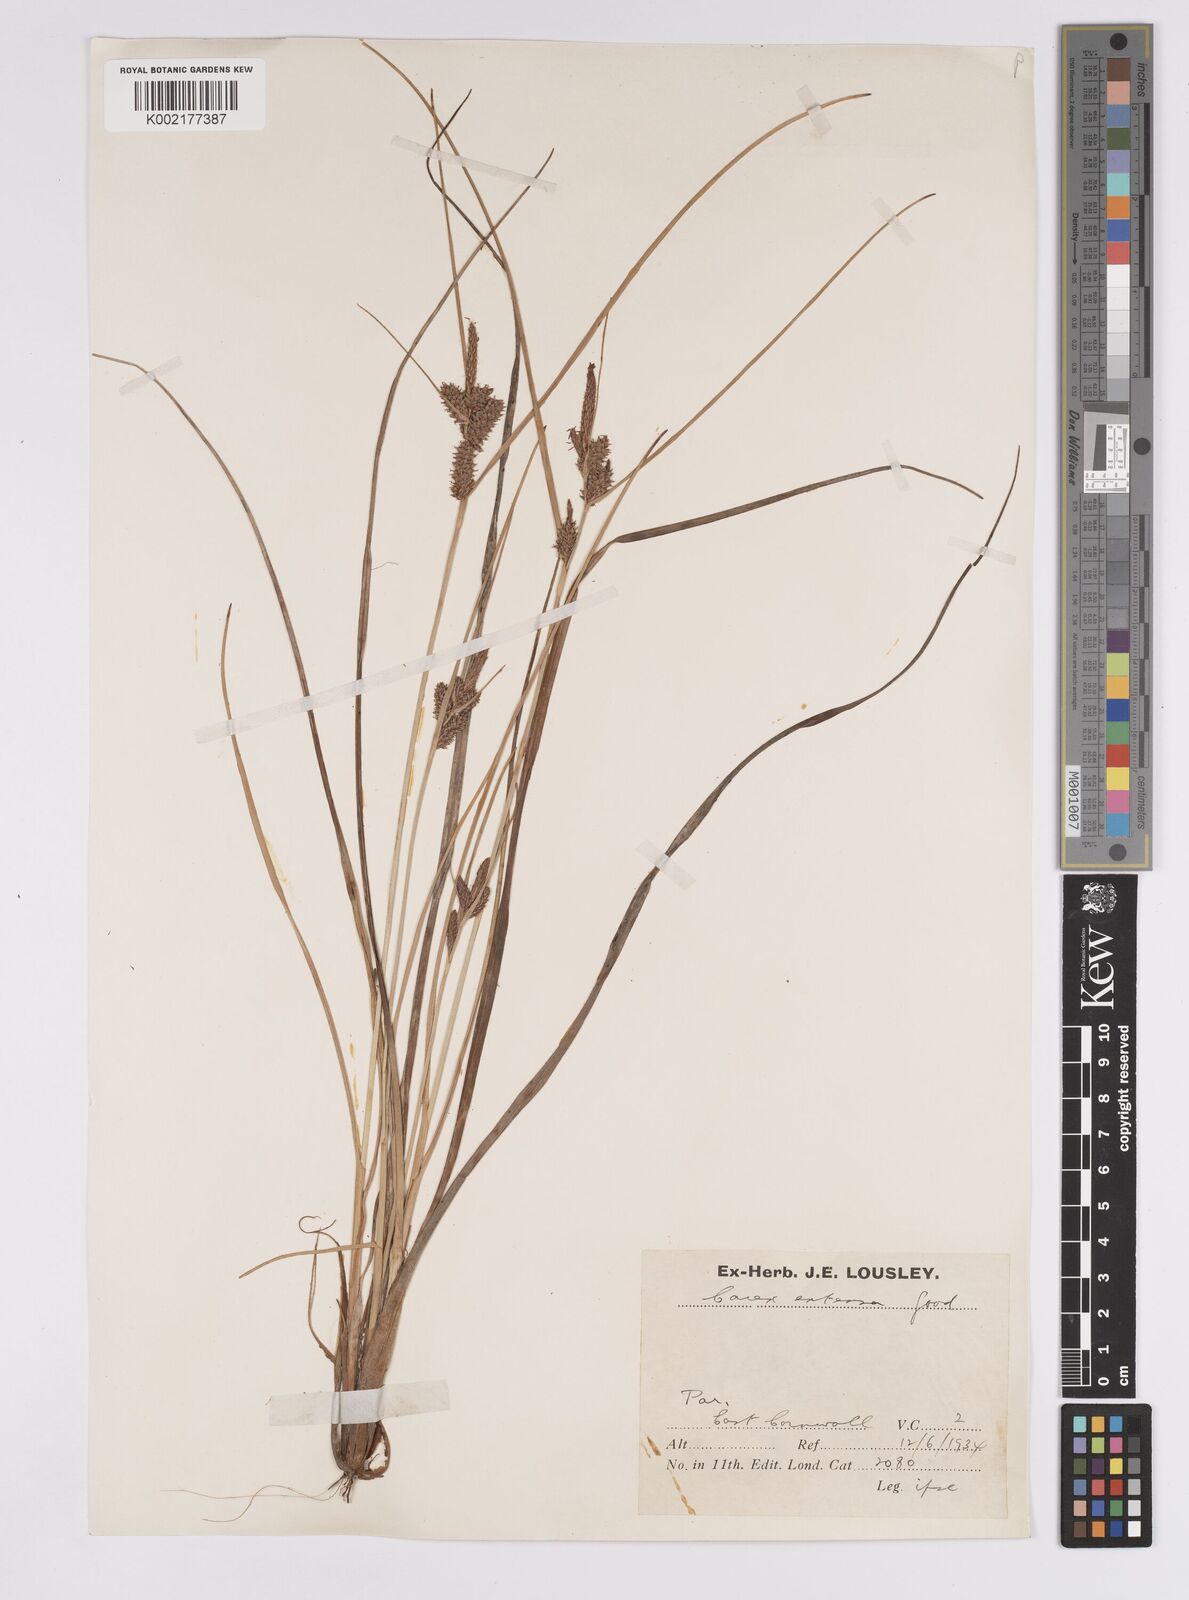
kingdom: Plantae
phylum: Tracheophyta
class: Liliopsida
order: Poales
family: Cyperaceae
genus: Carex
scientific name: Carex extensa
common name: Long-bracted sedge
